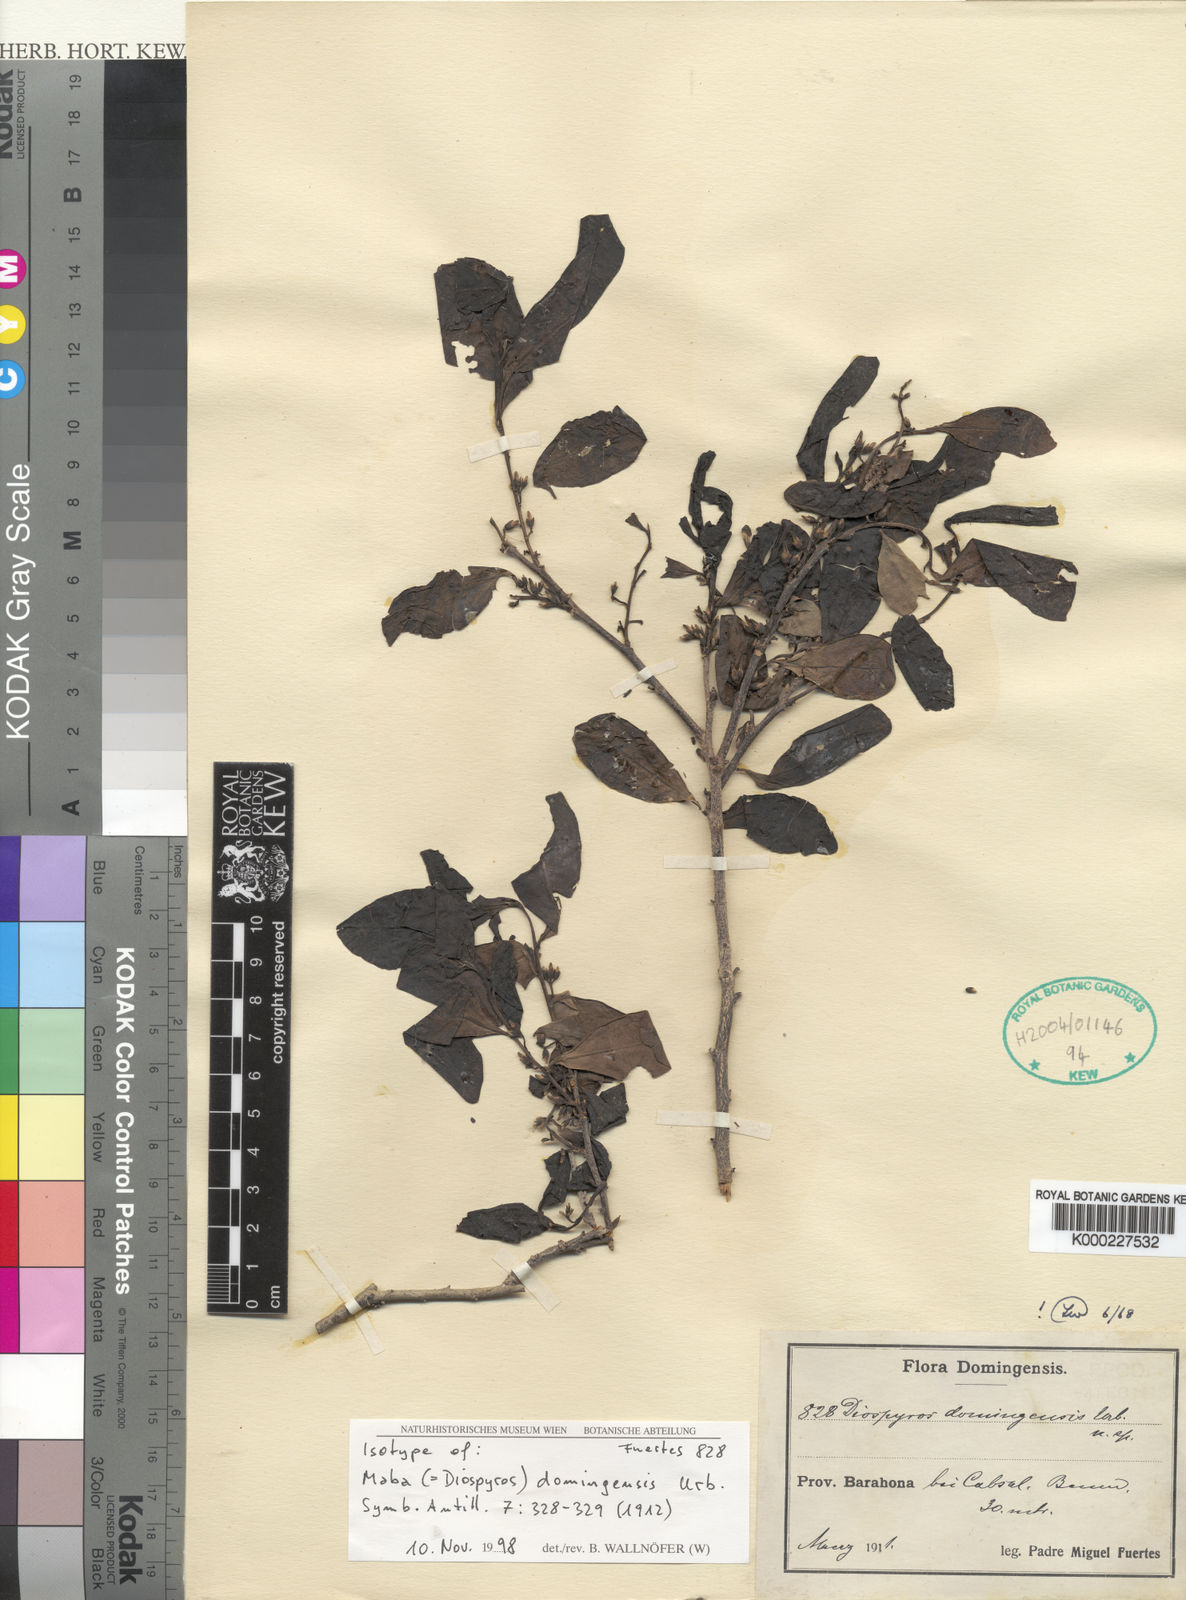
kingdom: Plantae
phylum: Tracheophyta
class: Magnoliopsida
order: Ericales
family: Ebenaceae
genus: Diospyros
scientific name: Diospyros domingensis
